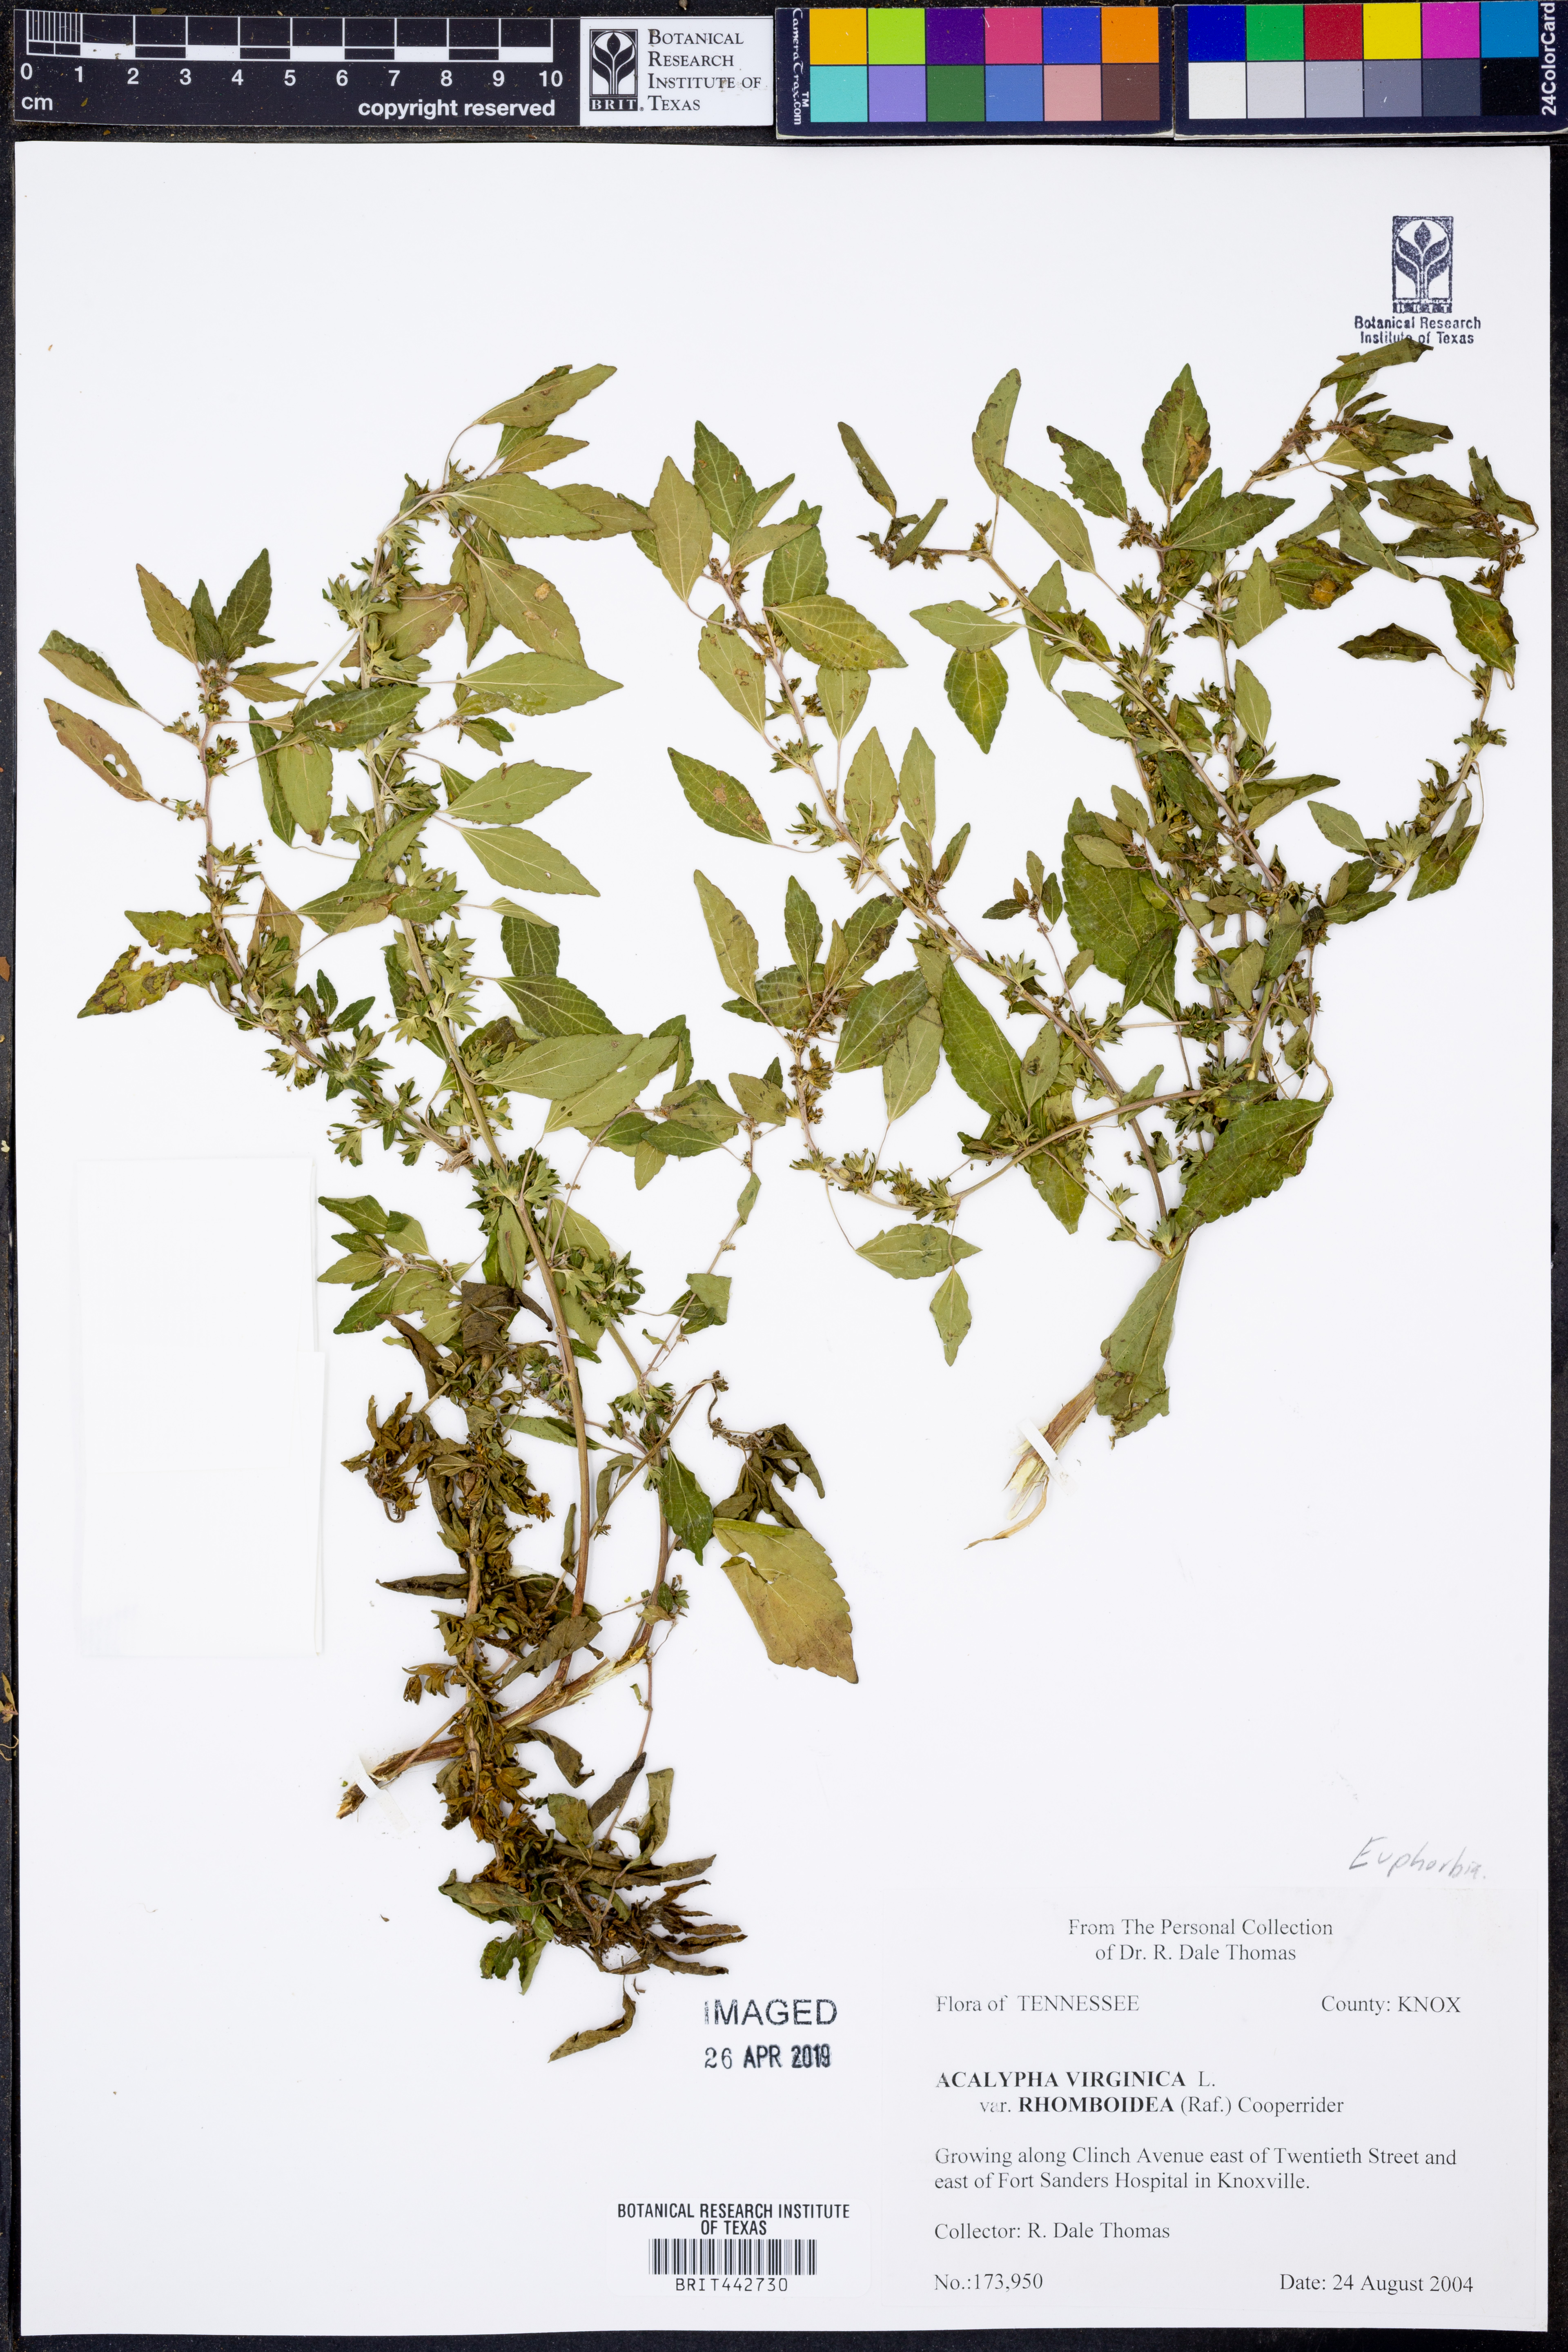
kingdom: Plantae
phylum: Tracheophyta
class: Magnoliopsida
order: Malpighiales
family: Euphorbiaceae
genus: Acalypha
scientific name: Acalypha rhomboidea
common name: Rhombic copperleaf
